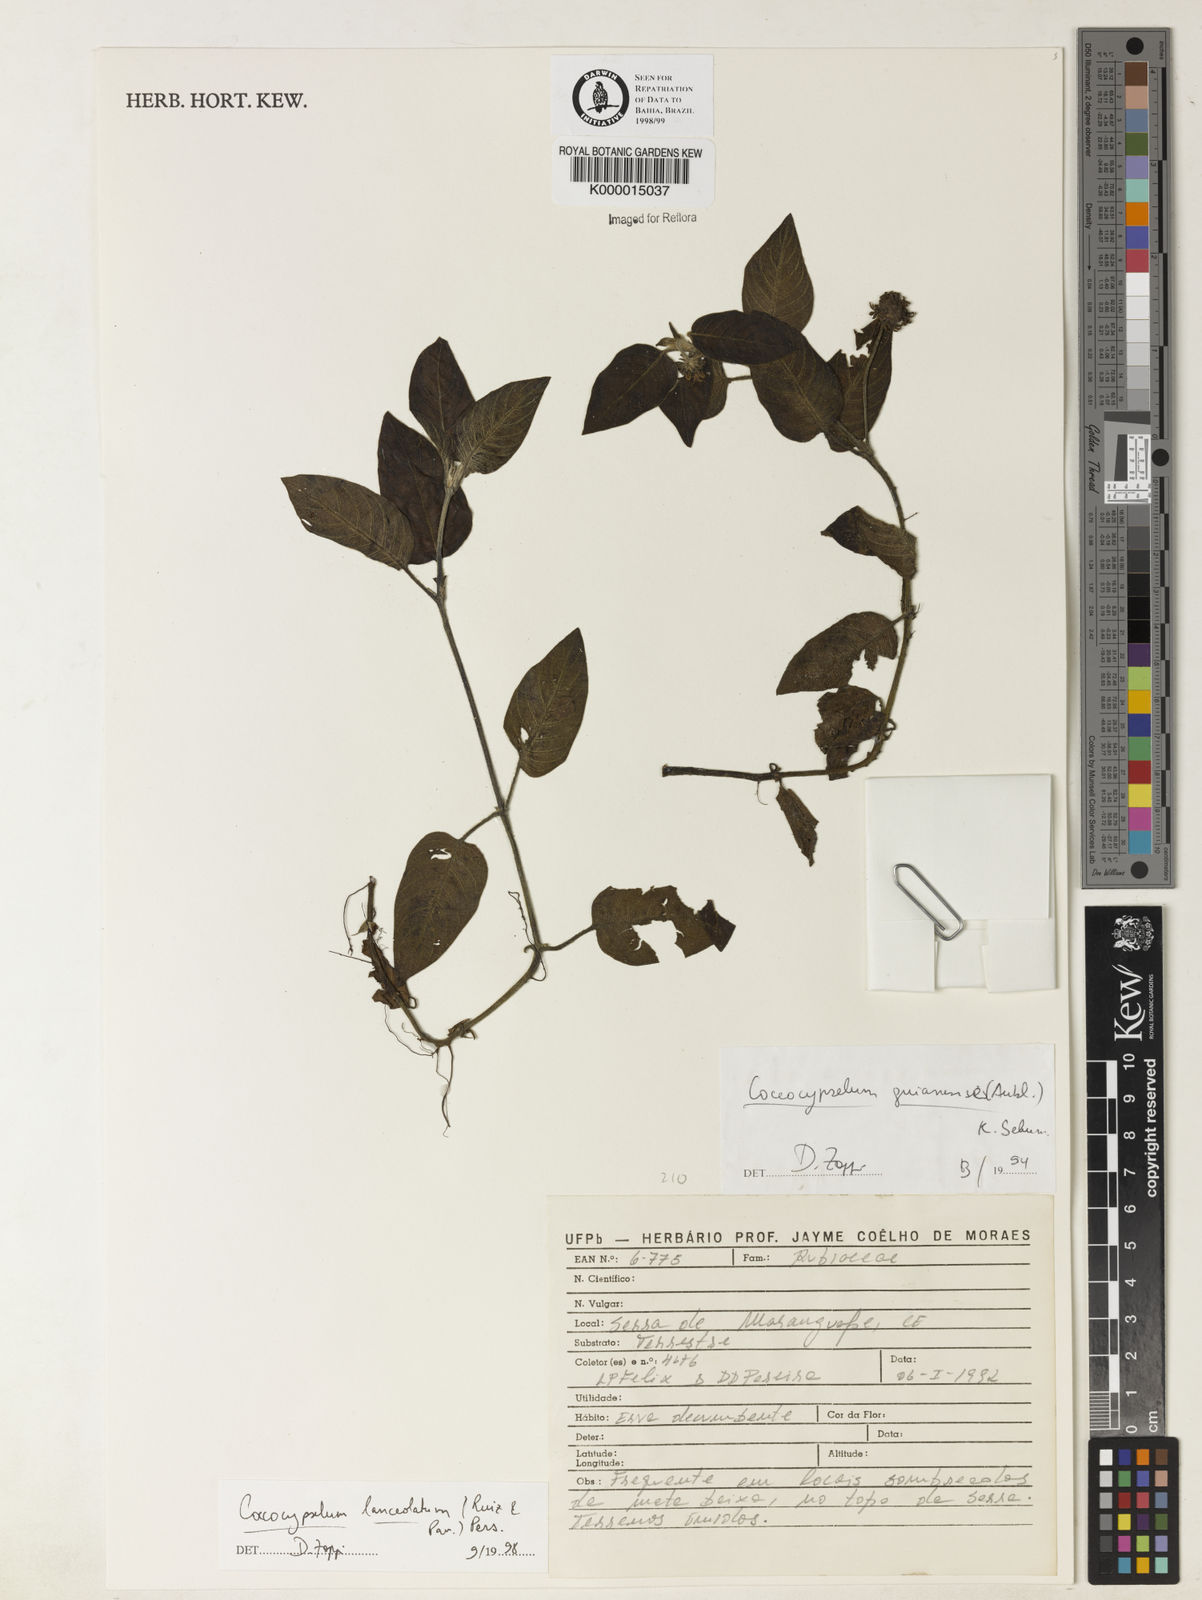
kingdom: Plantae
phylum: Tracheophyta
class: Magnoliopsida
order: Gentianales
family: Rubiaceae
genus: Coccocypselum
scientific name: Coccocypselum lanceolatum
